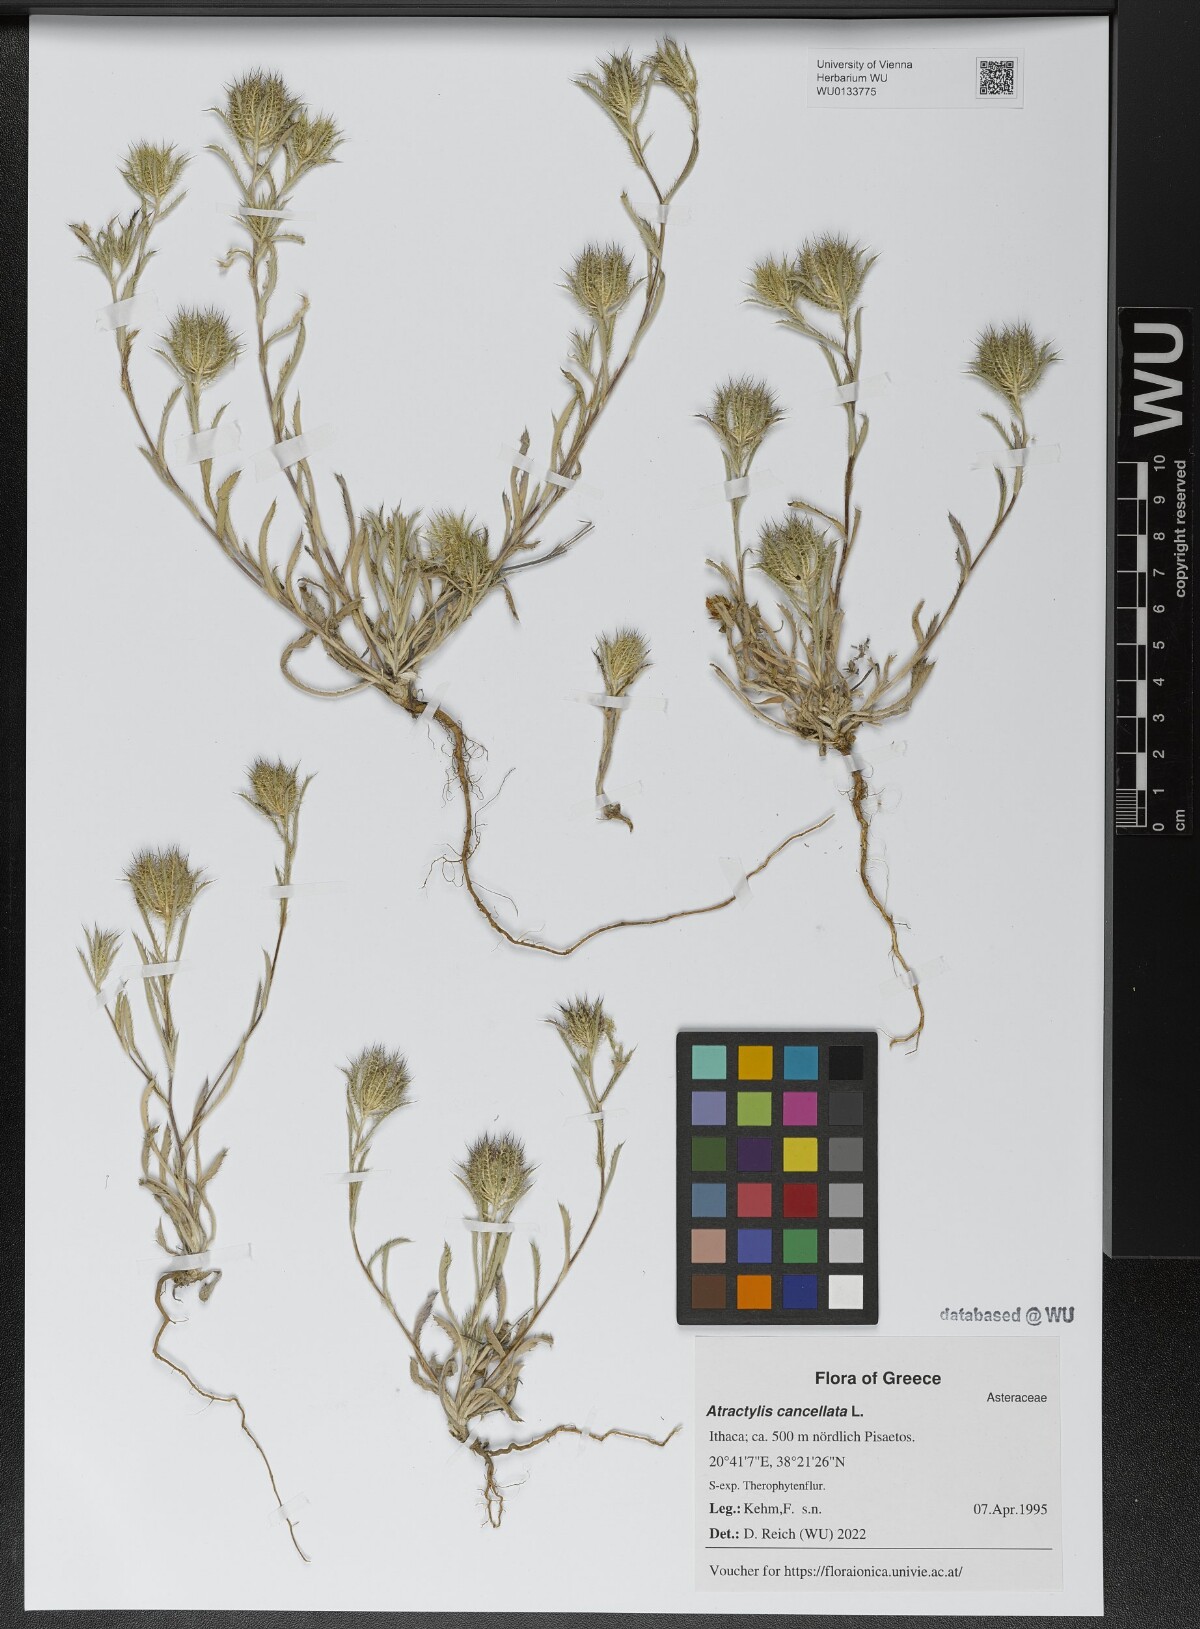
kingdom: Plantae
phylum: Tracheophyta
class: Magnoliopsida
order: Asterales
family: Asteraceae
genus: Atractylis
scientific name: Atractylis cancellata
